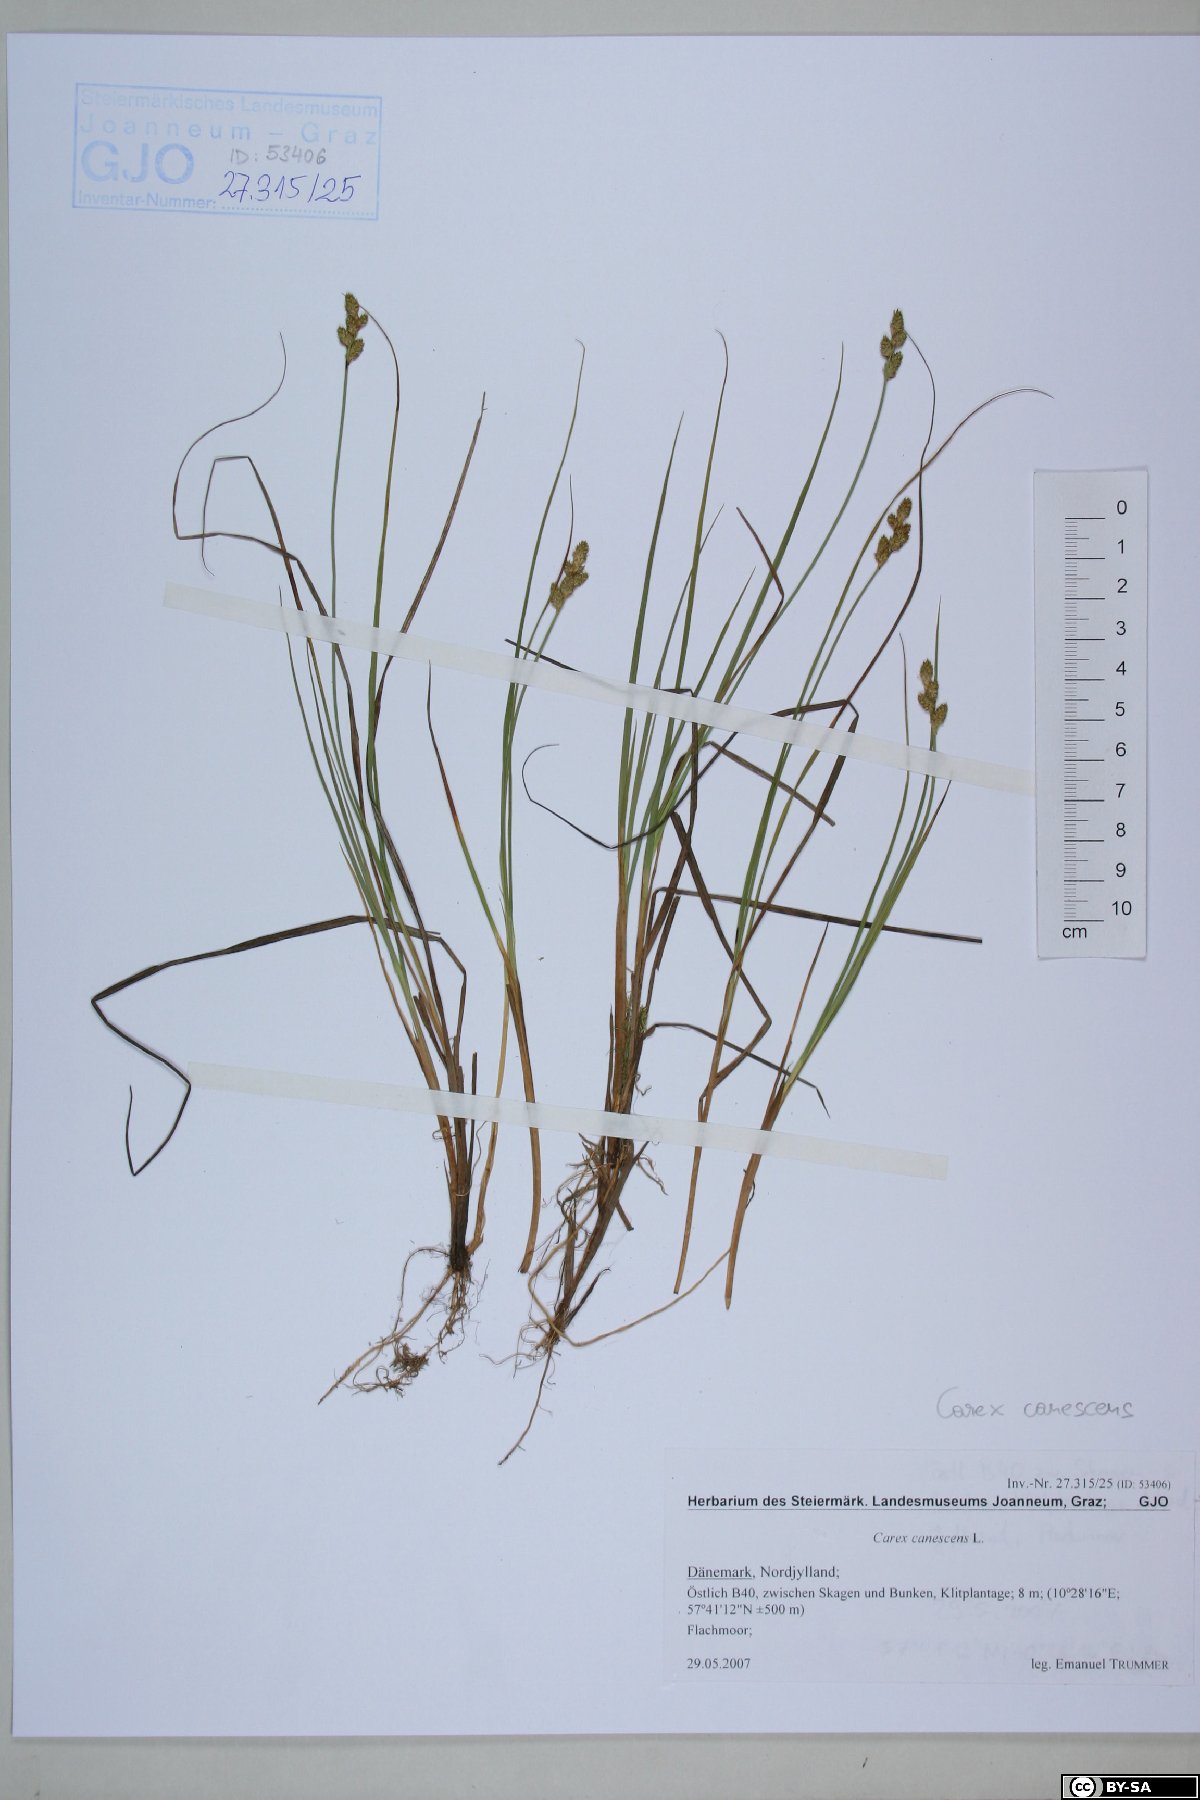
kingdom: Plantae
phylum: Tracheophyta
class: Liliopsida
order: Poales
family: Cyperaceae
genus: Carex
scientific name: Carex canescens
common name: White sedge
